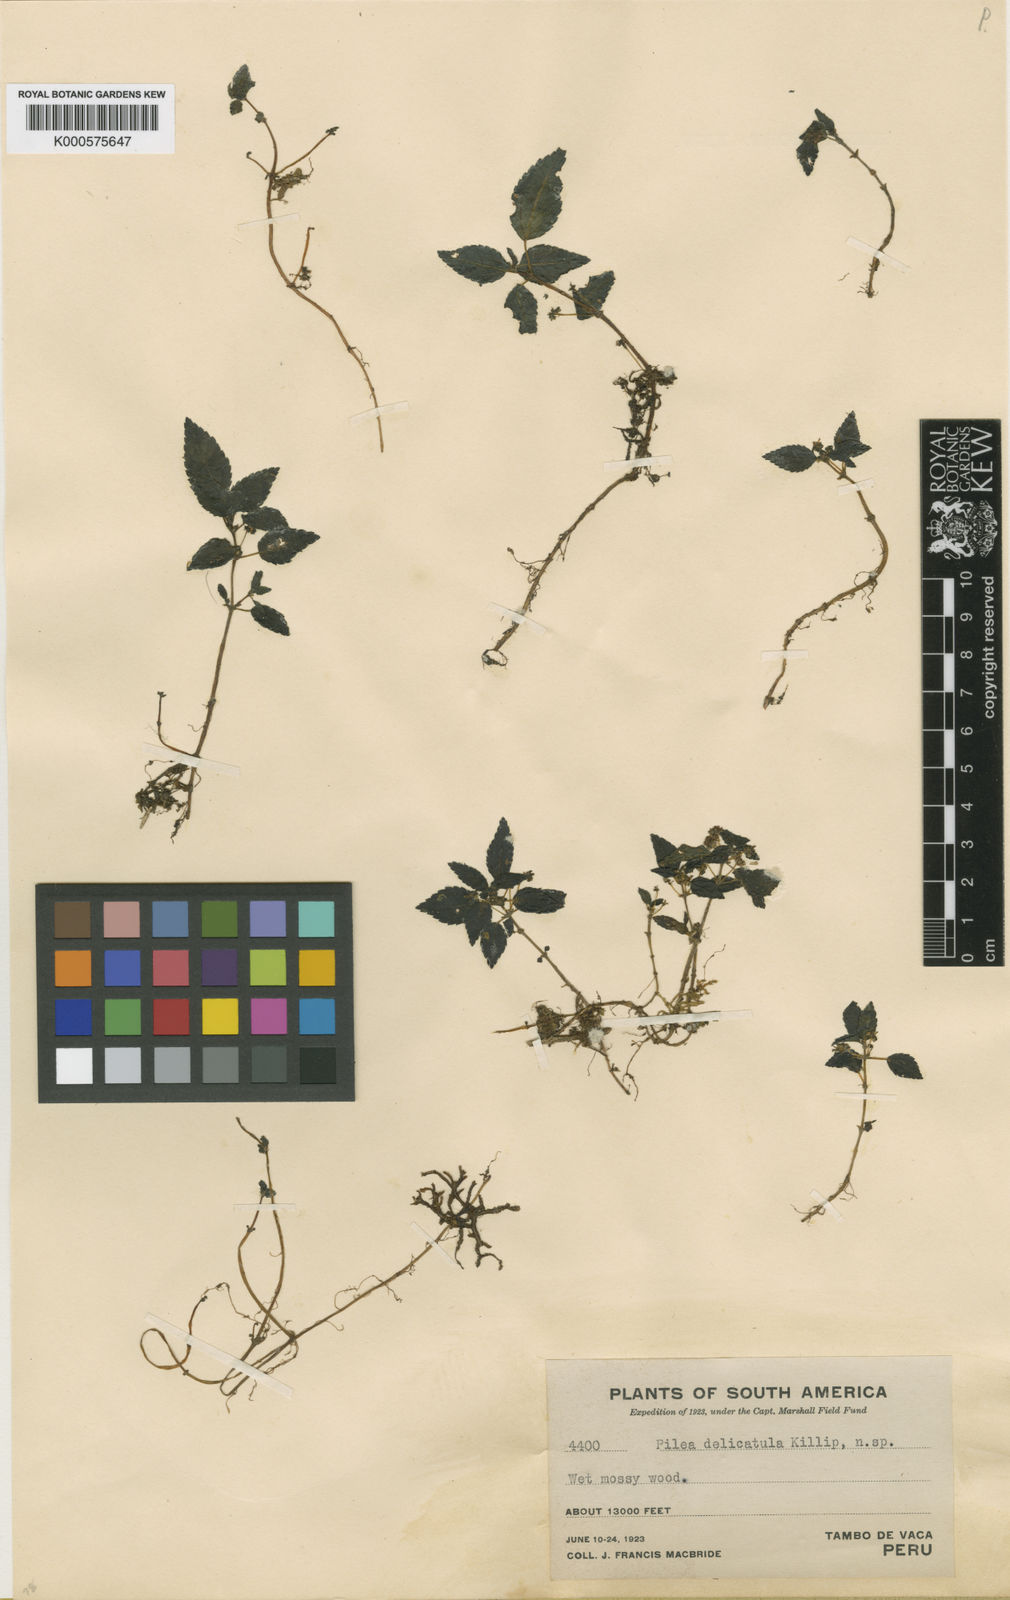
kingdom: Plantae
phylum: Tracheophyta
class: Magnoliopsida
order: Rosales
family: Urticaceae
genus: Pilea
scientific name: Pilea delicatula
